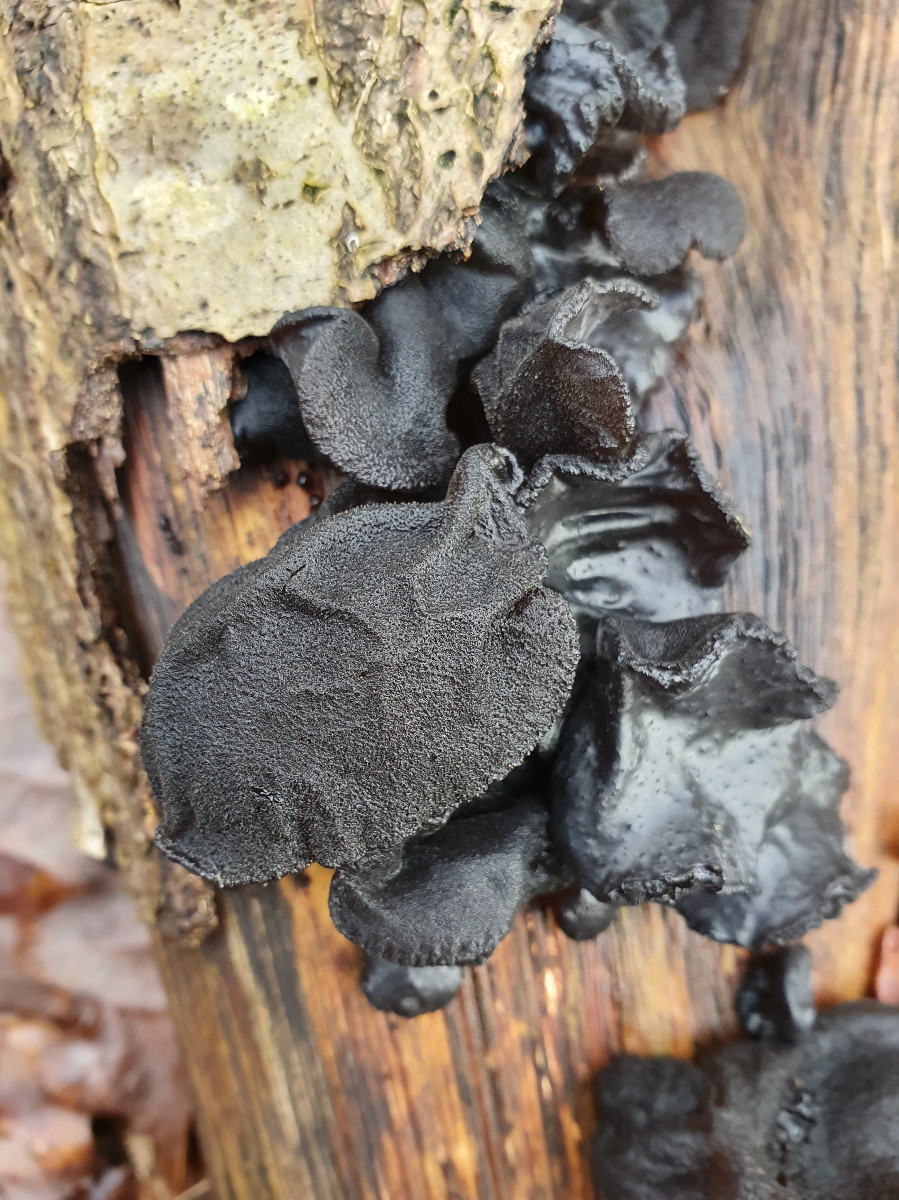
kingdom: Fungi
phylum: Basidiomycota
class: Agaricomycetes
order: Auriculariales
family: Auriculariaceae
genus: Exidia
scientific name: Exidia glandulosa
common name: ege-bævretop
